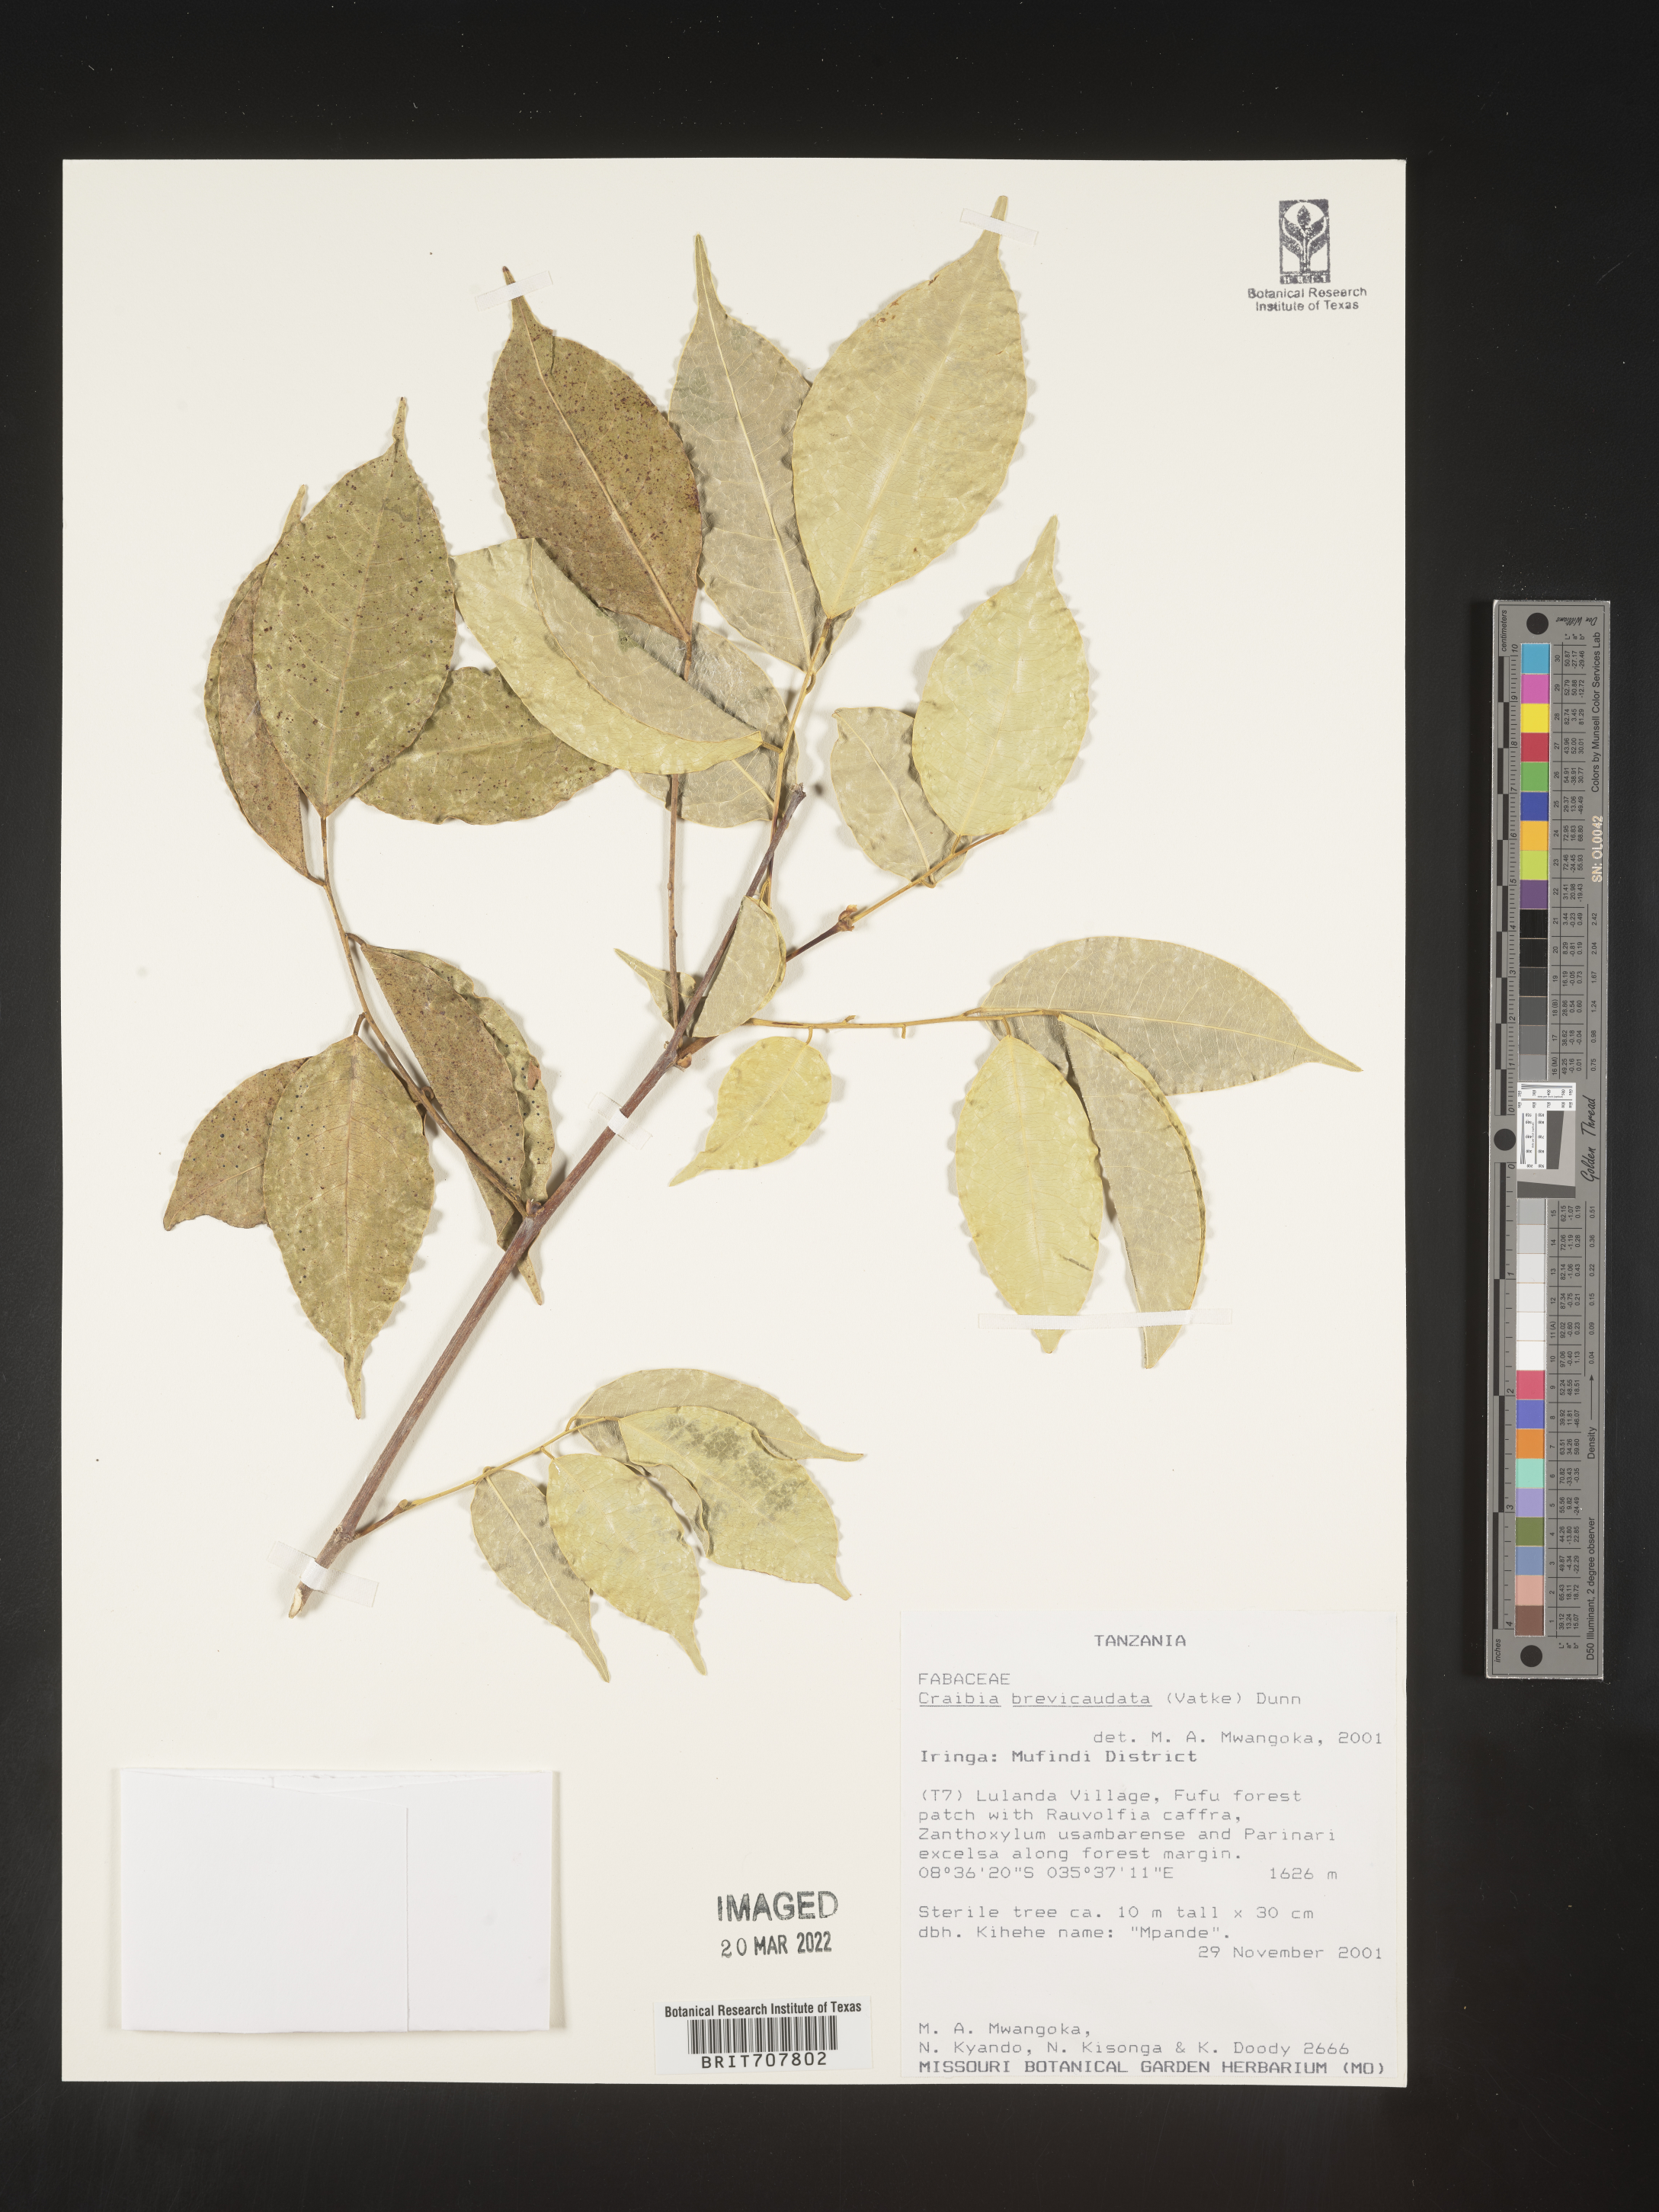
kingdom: Plantae
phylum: Tracheophyta
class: Magnoliopsida
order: Fabales
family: Fabaceae
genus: Craibia
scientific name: Craibia
